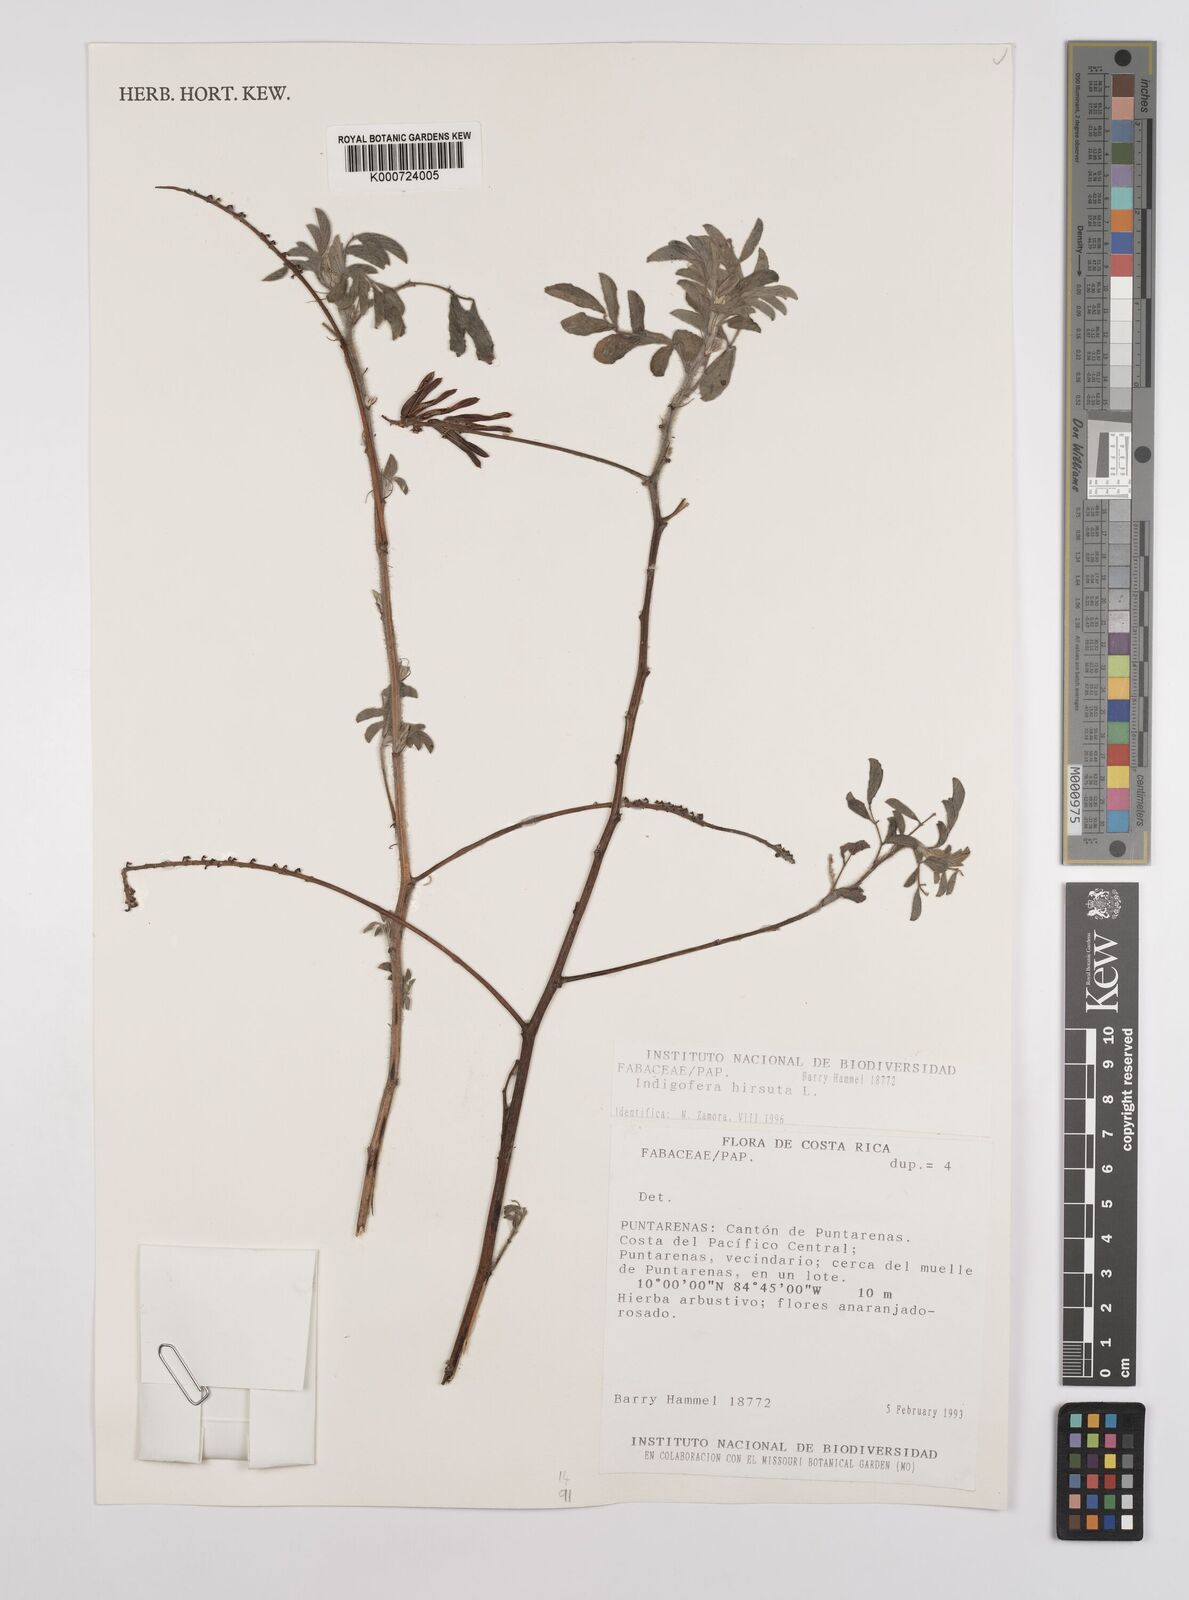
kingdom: Plantae
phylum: Tracheophyta
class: Magnoliopsida
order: Fabales
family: Fabaceae
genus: Indigofera
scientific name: Indigofera hirsuta
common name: Hairy indigo
